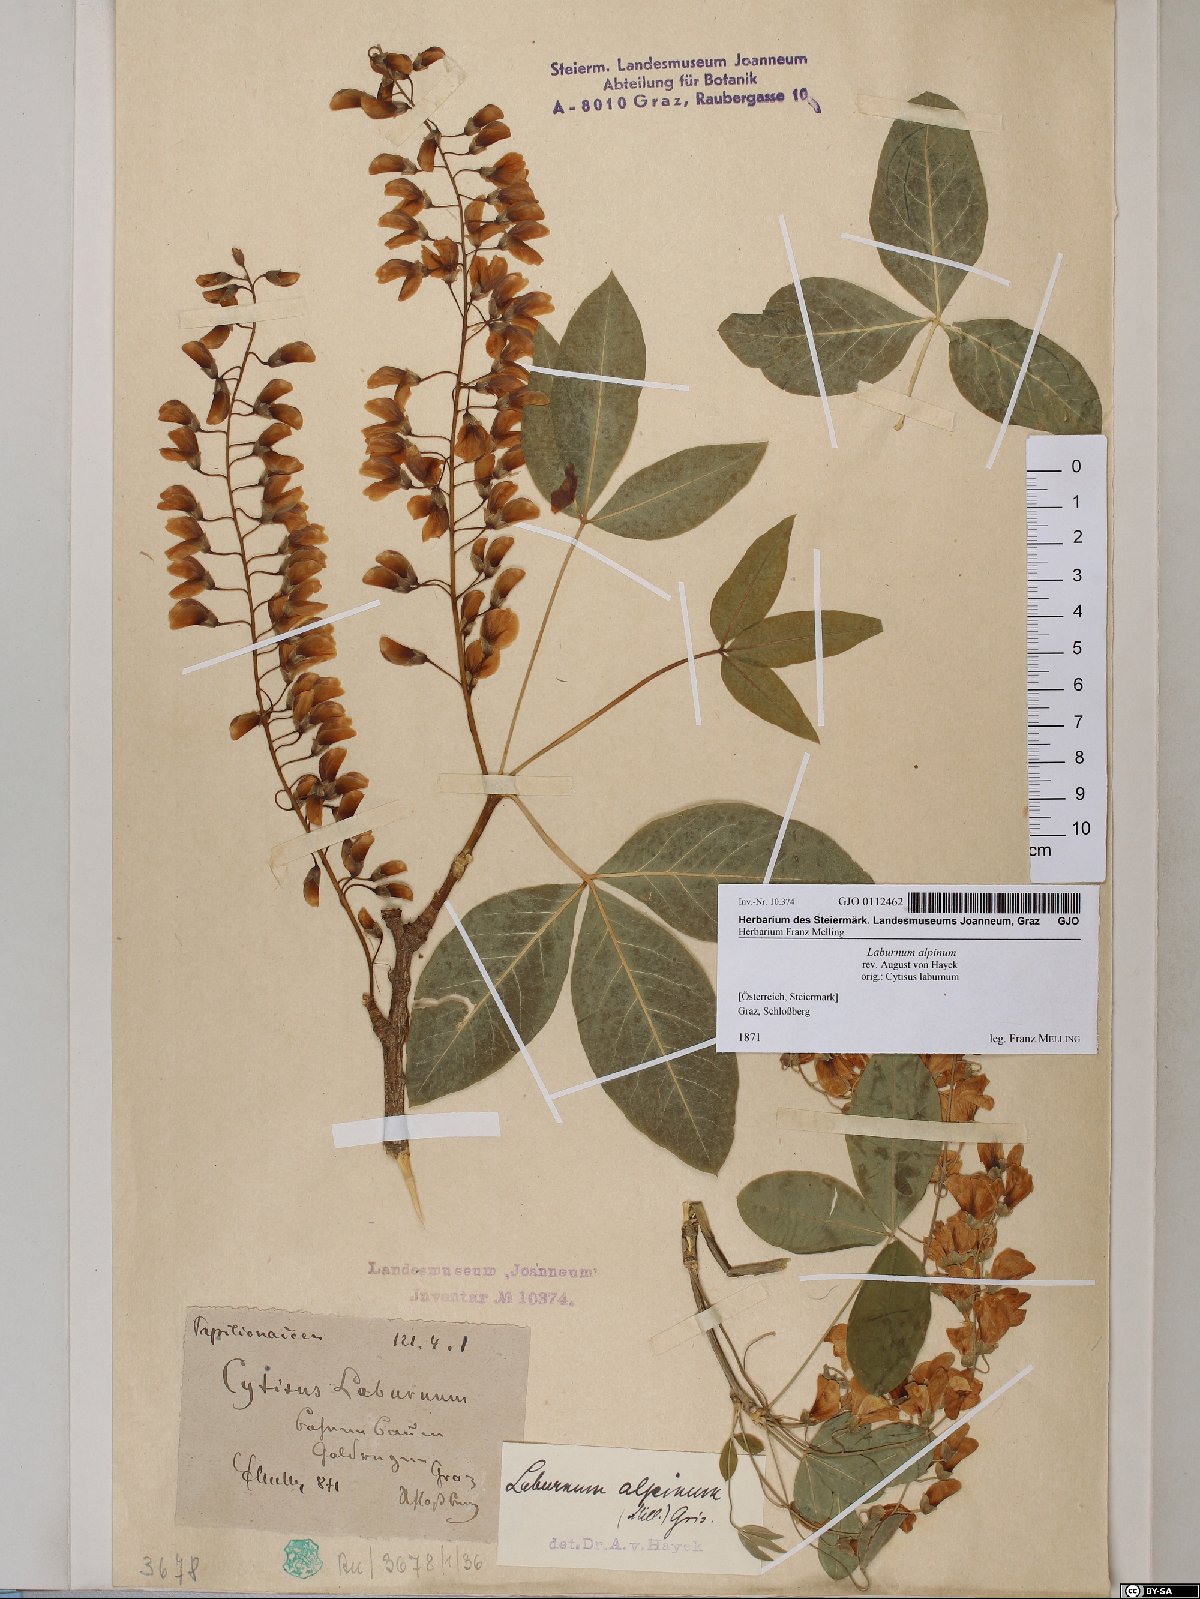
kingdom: Plantae
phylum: Tracheophyta
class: Magnoliopsida
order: Fabales
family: Fabaceae
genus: Laburnum
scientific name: Laburnum alpinum
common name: Scottish laburnum
